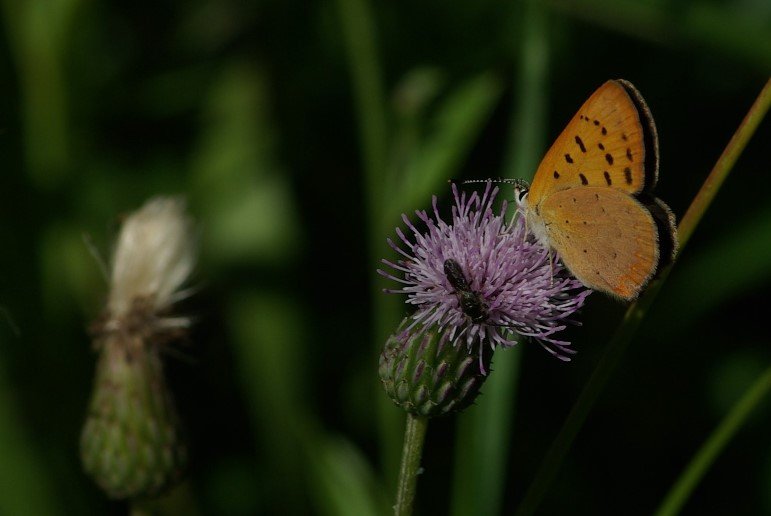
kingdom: Animalia
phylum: Arthropoda
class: Insecta
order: Lepidoptera
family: Lycaenidae
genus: Epidemia
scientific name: Epidemia dorcas
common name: Dorcas Copper
